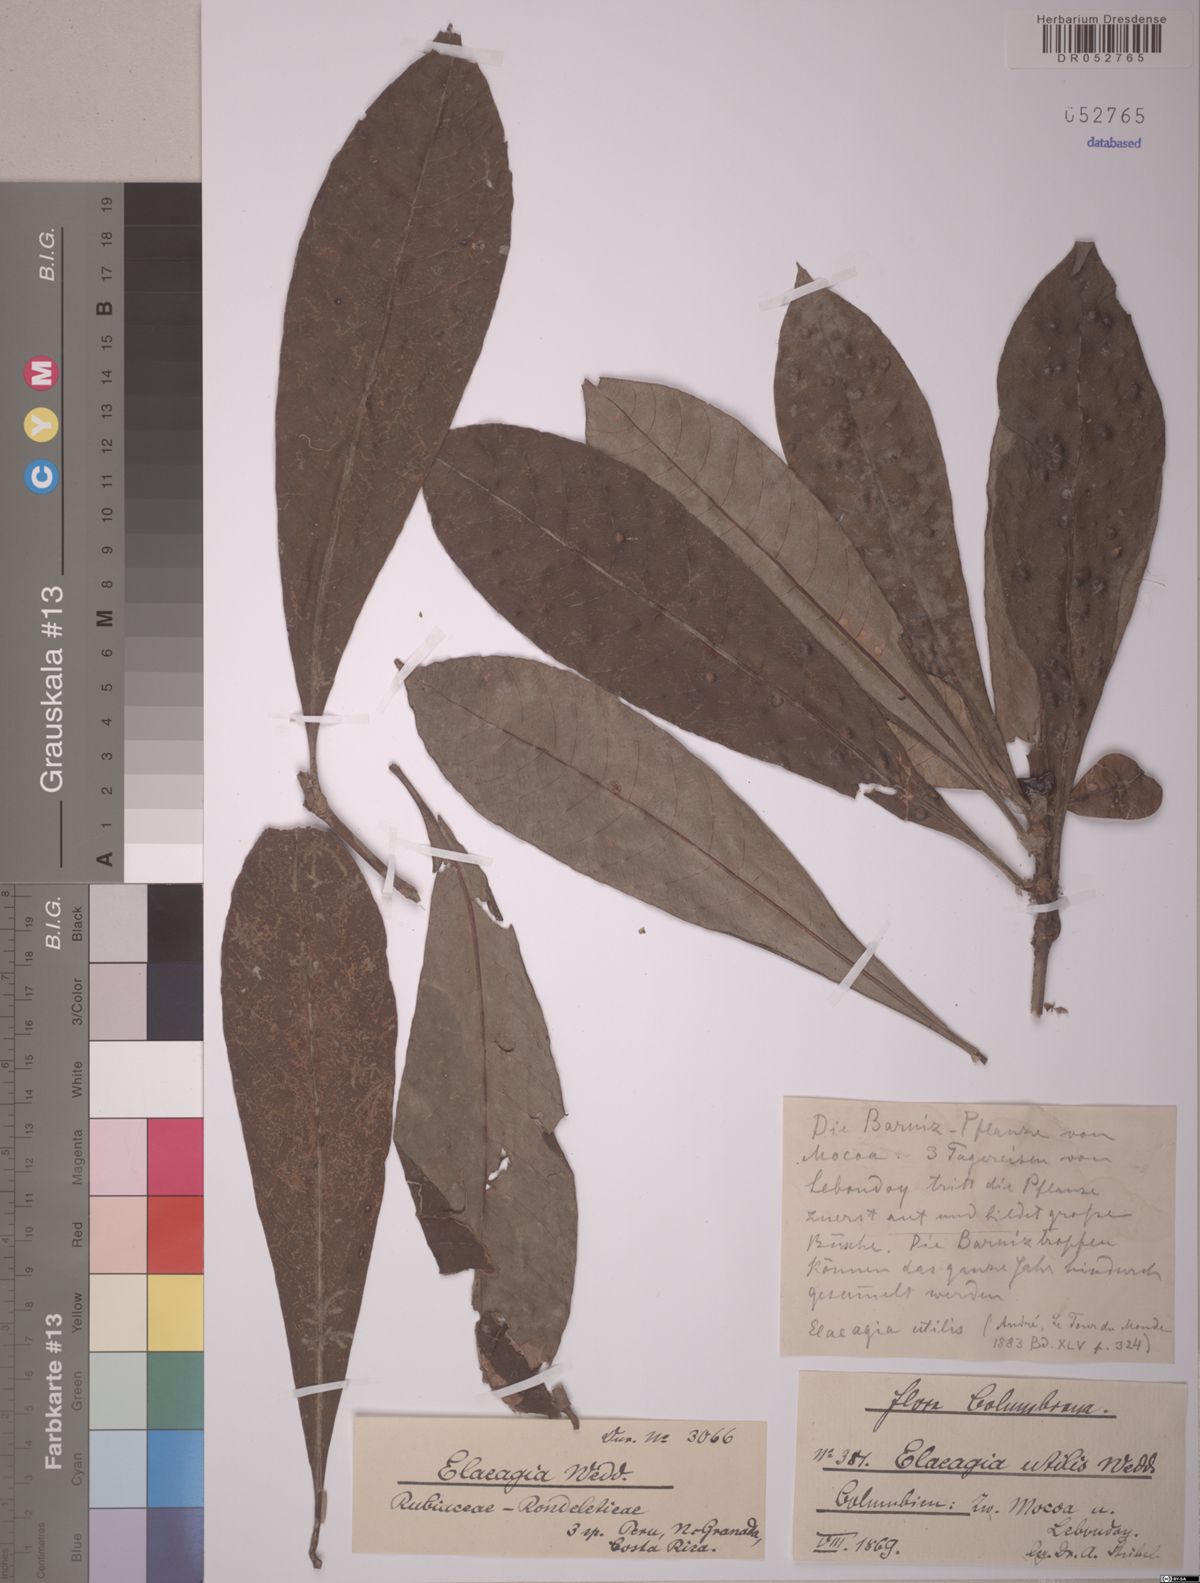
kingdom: Plantae
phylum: Tracheophyta
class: Magnoliopsida
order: Gentianales
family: Rubiaceae
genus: Elaeagia
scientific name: Elaeagia utilis
